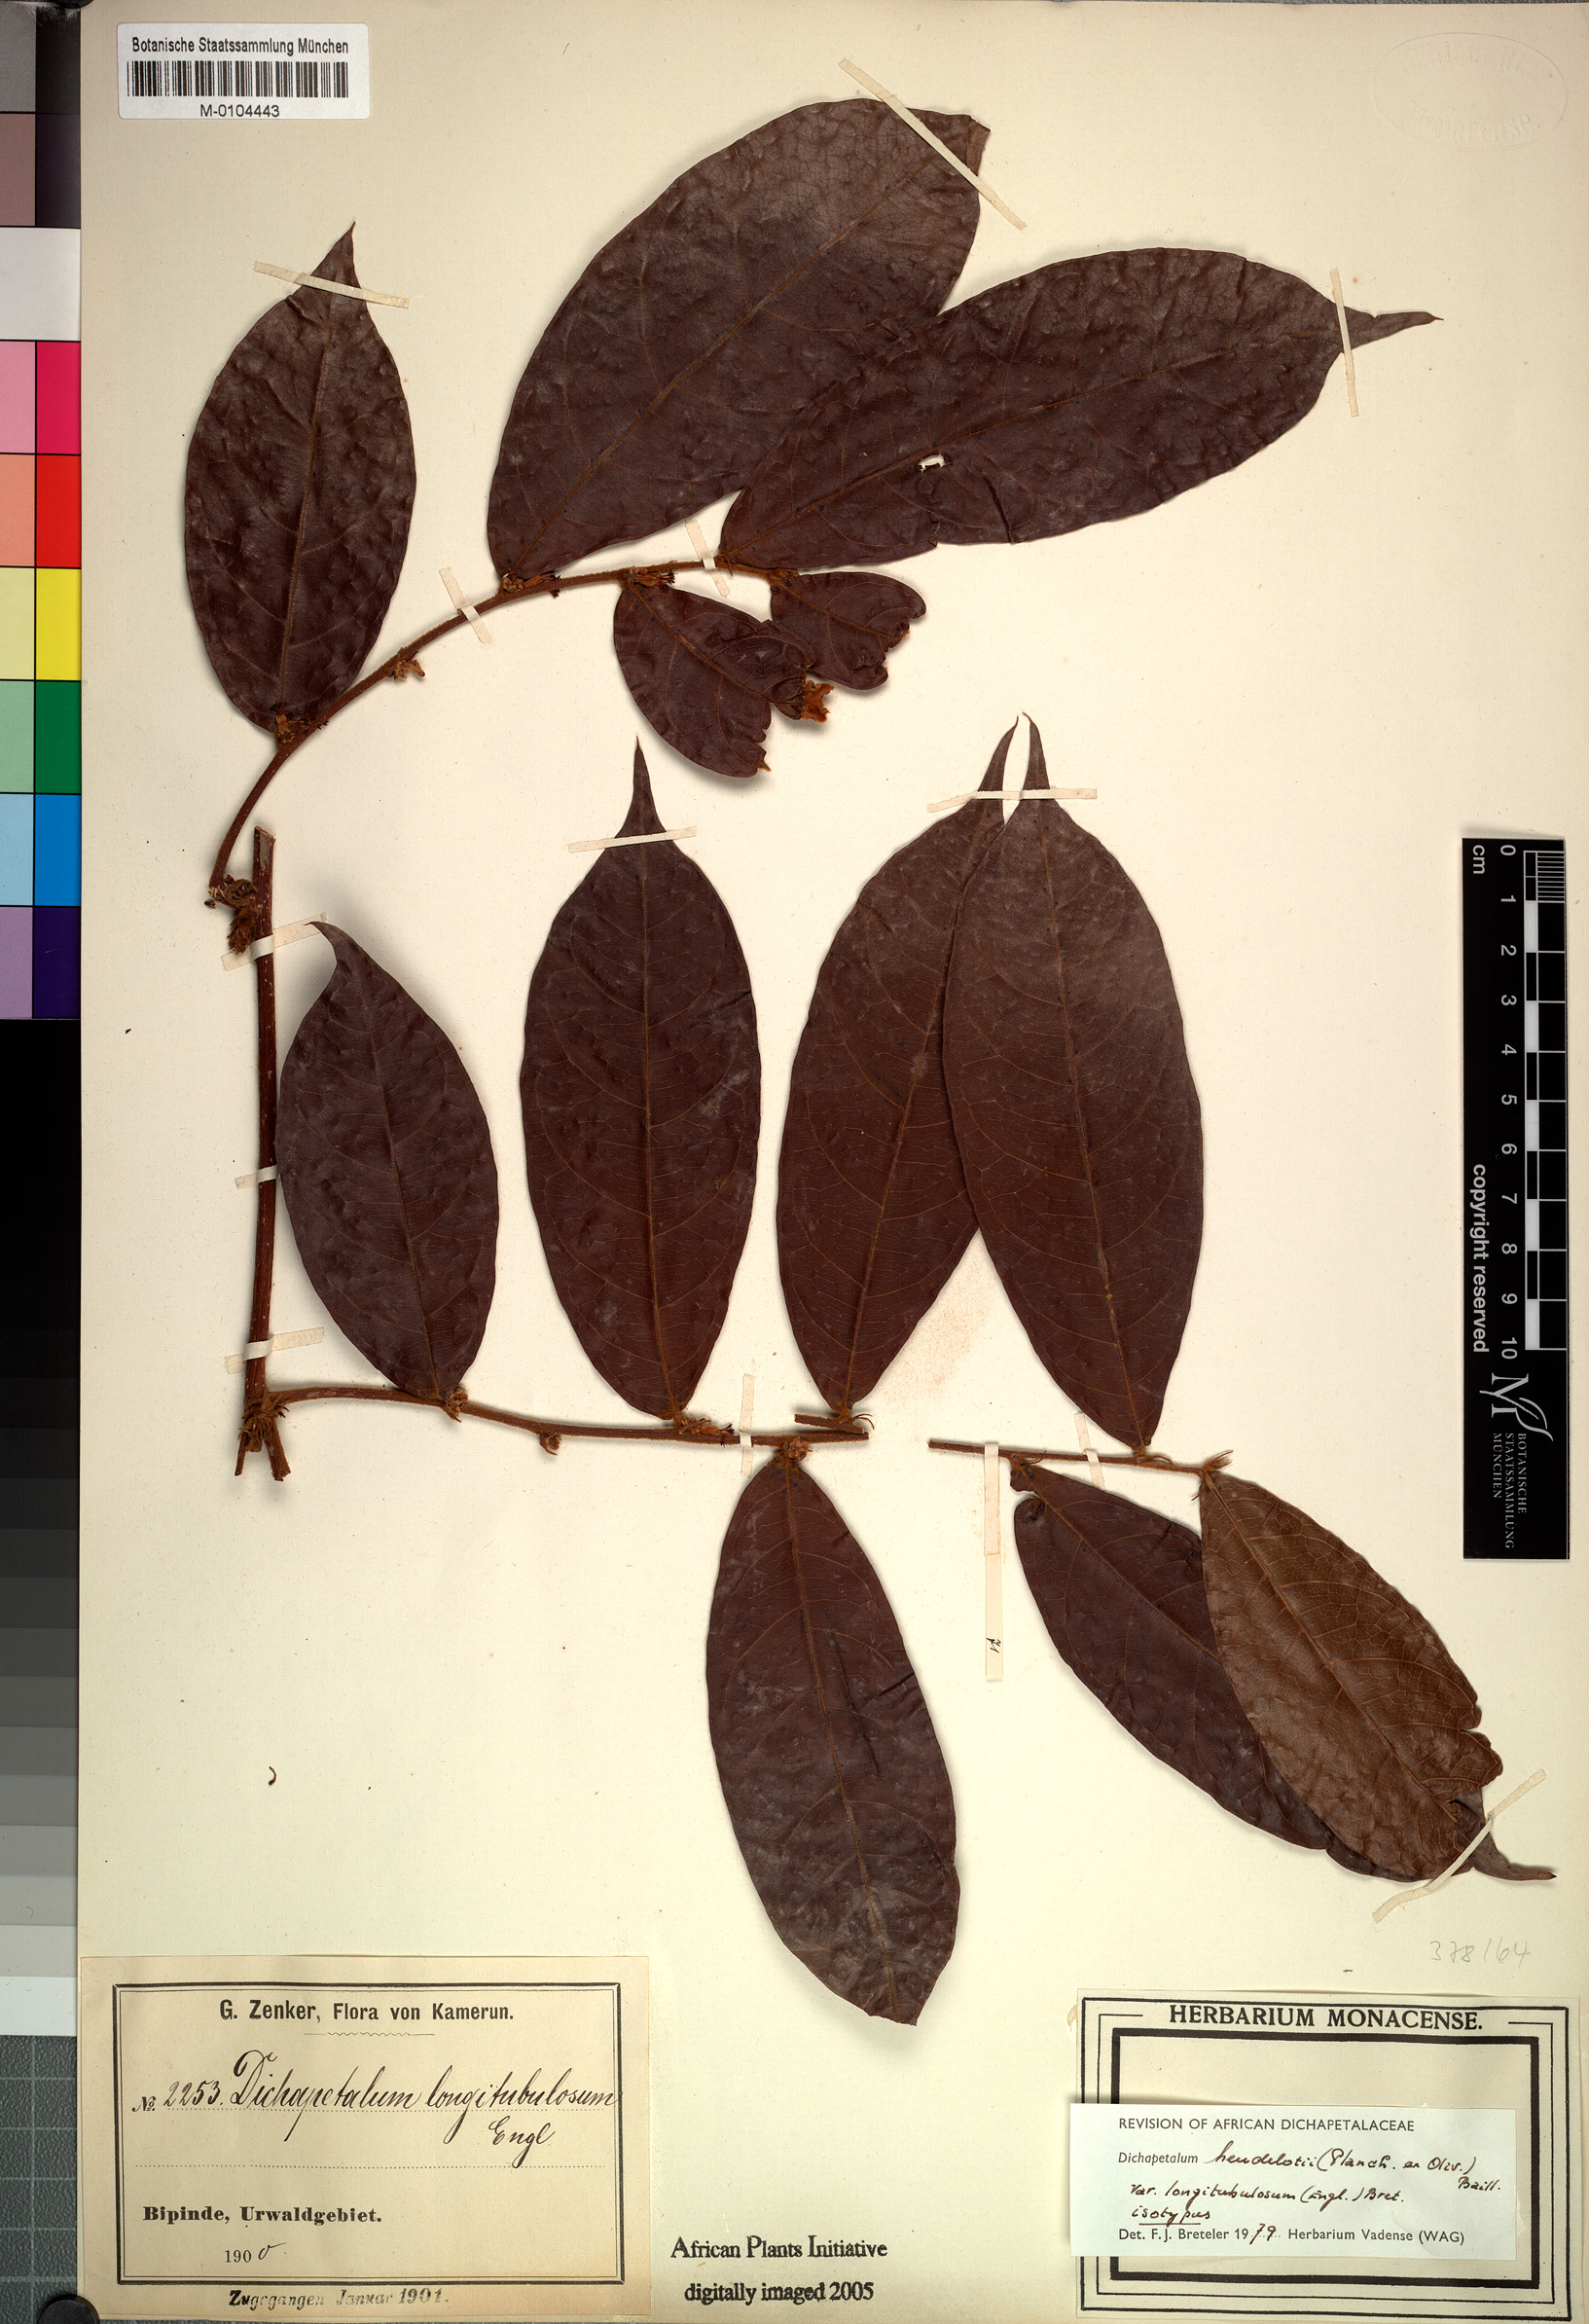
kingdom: Plantae
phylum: Tracheophyta
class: Magnoliopsida
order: Malpighiales
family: Dichapetalaceae
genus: Dichapetalum
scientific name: Dichapetalum heudelotii
